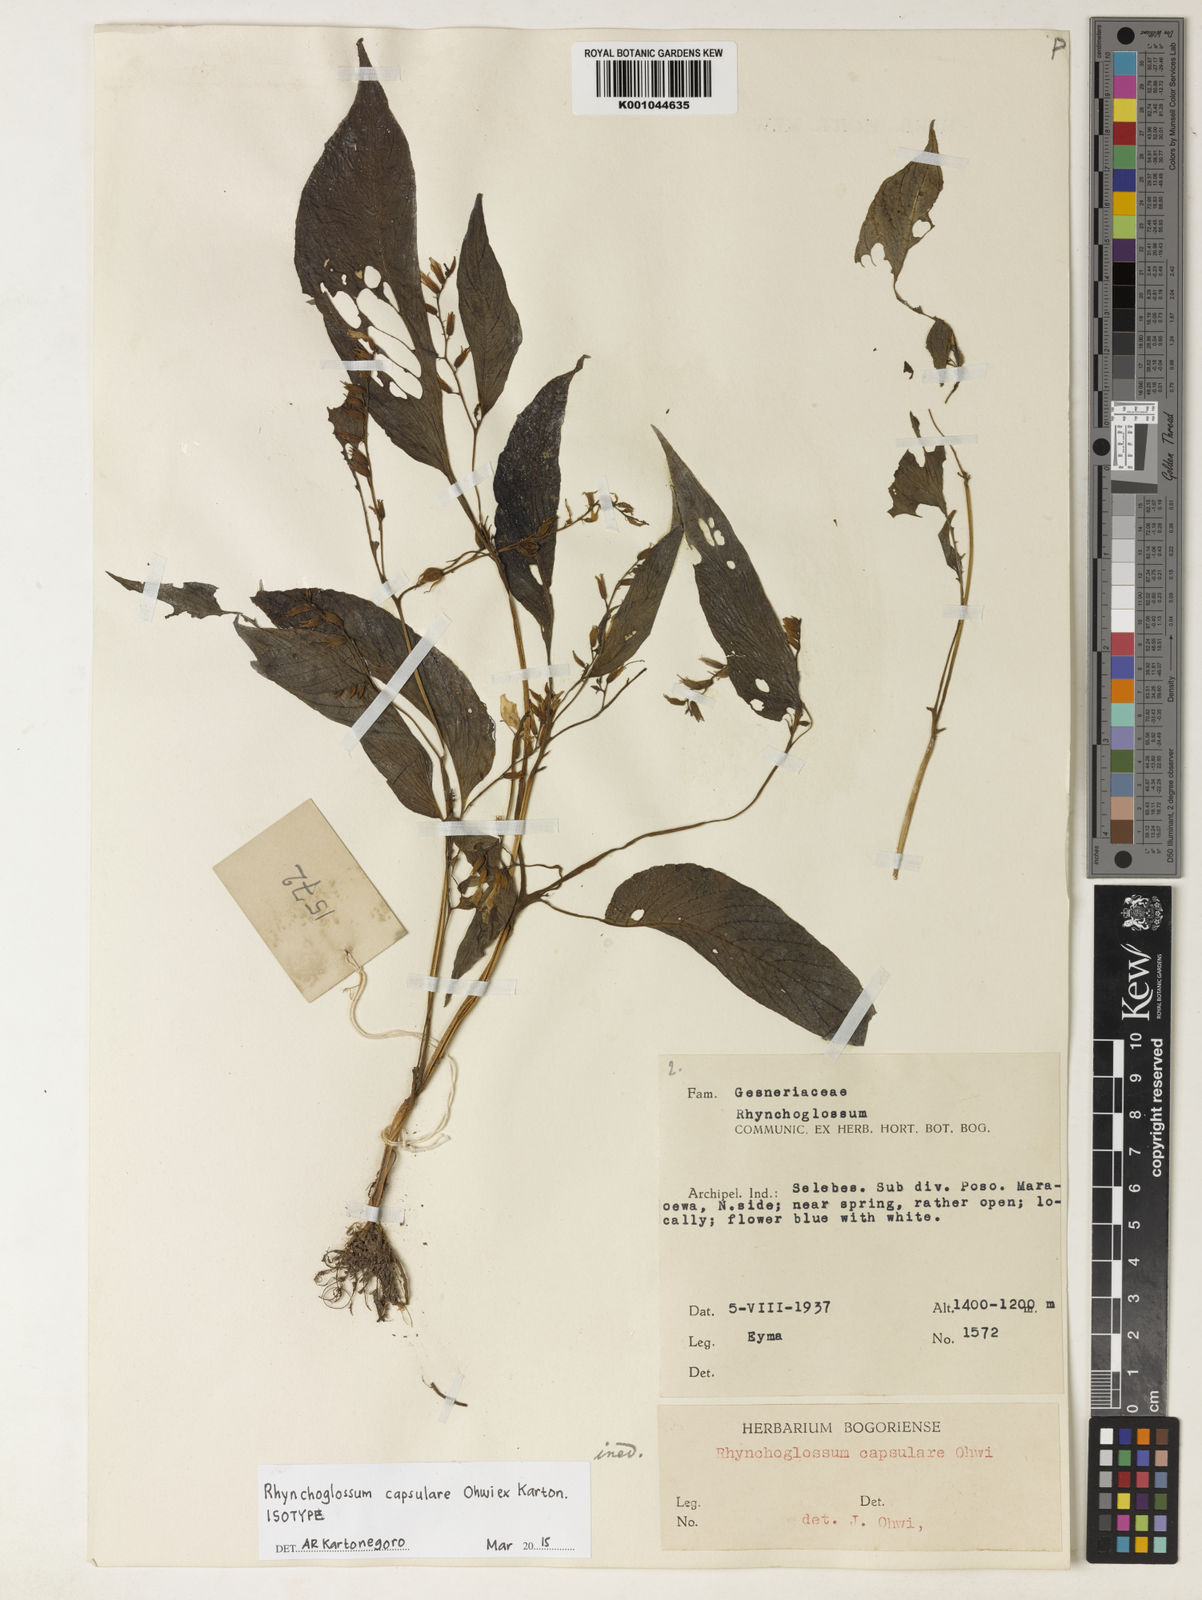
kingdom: Plantae
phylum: Tracheophyta
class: Magnoliopsida
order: Lamiales
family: Gesneriaceae
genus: Rhynchoglossum
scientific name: Rhynchoglossum capsulare
